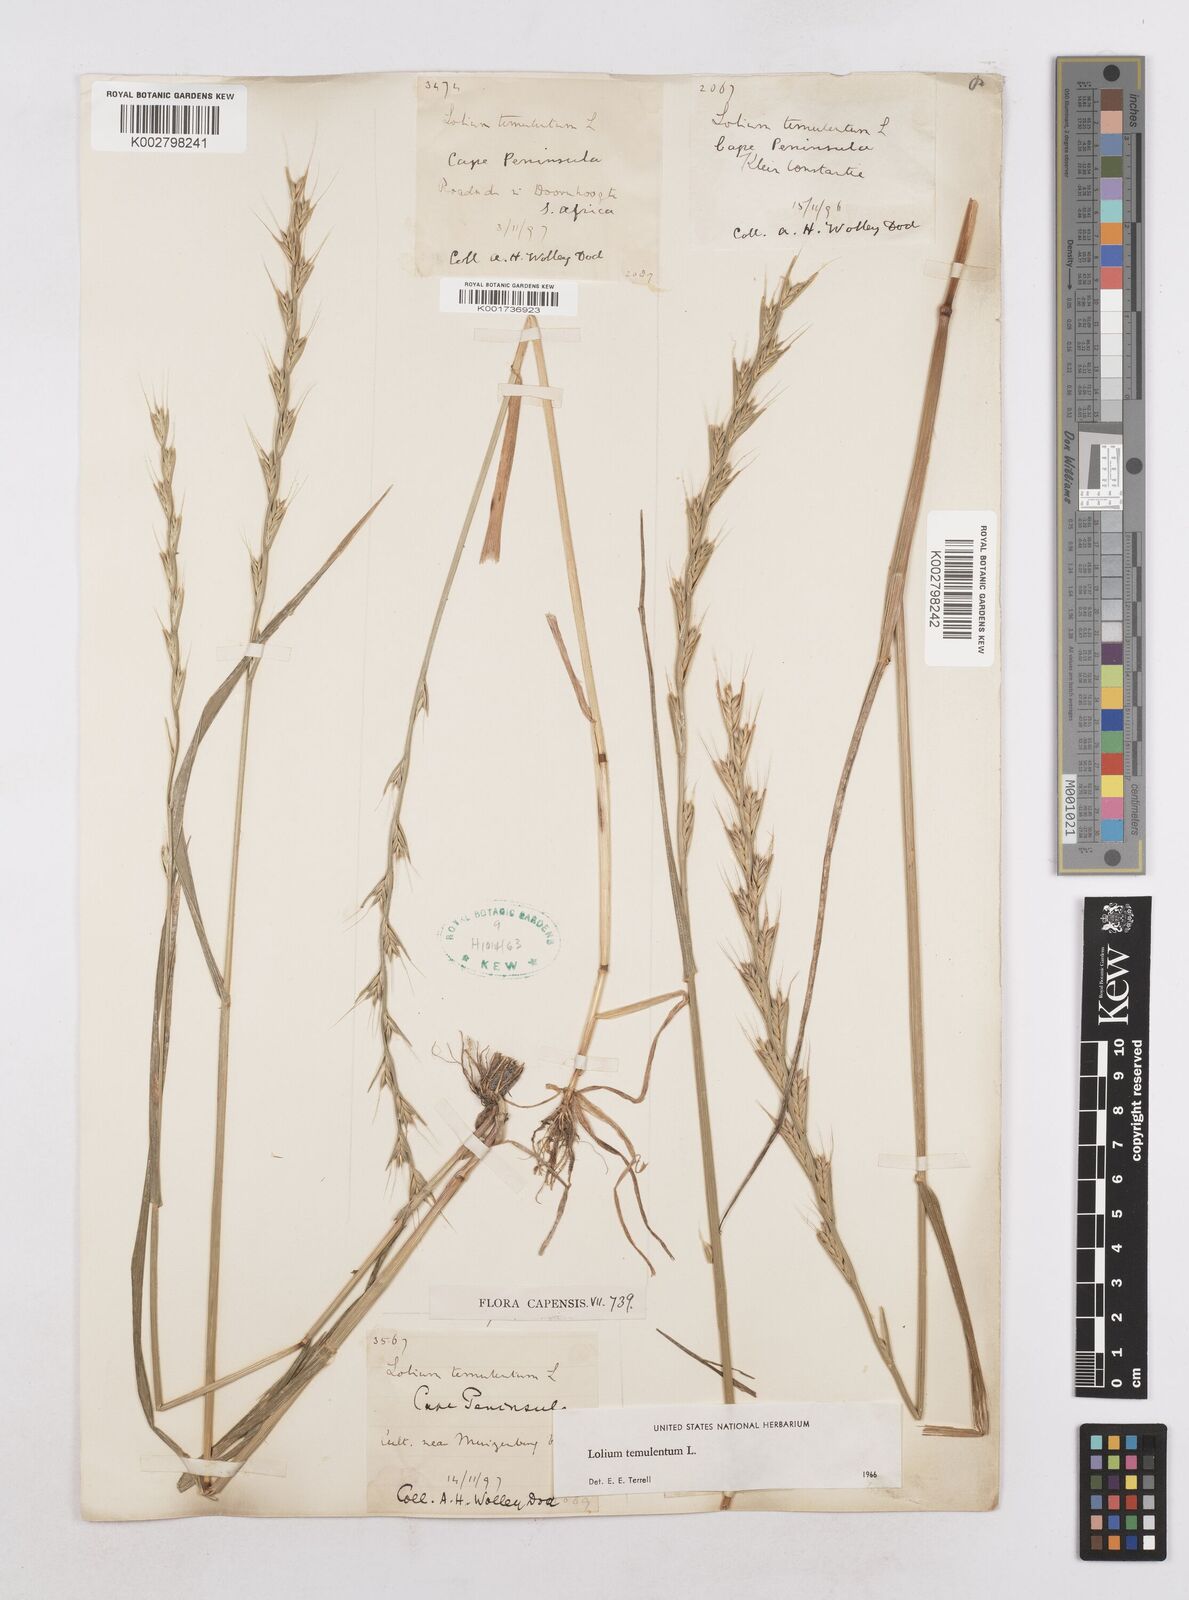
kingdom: Plantae
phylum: Tracheophyta
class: Liliopsida
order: Poales
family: Poaceae
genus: Lolium
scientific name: Lolium temulentum
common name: Darnel
